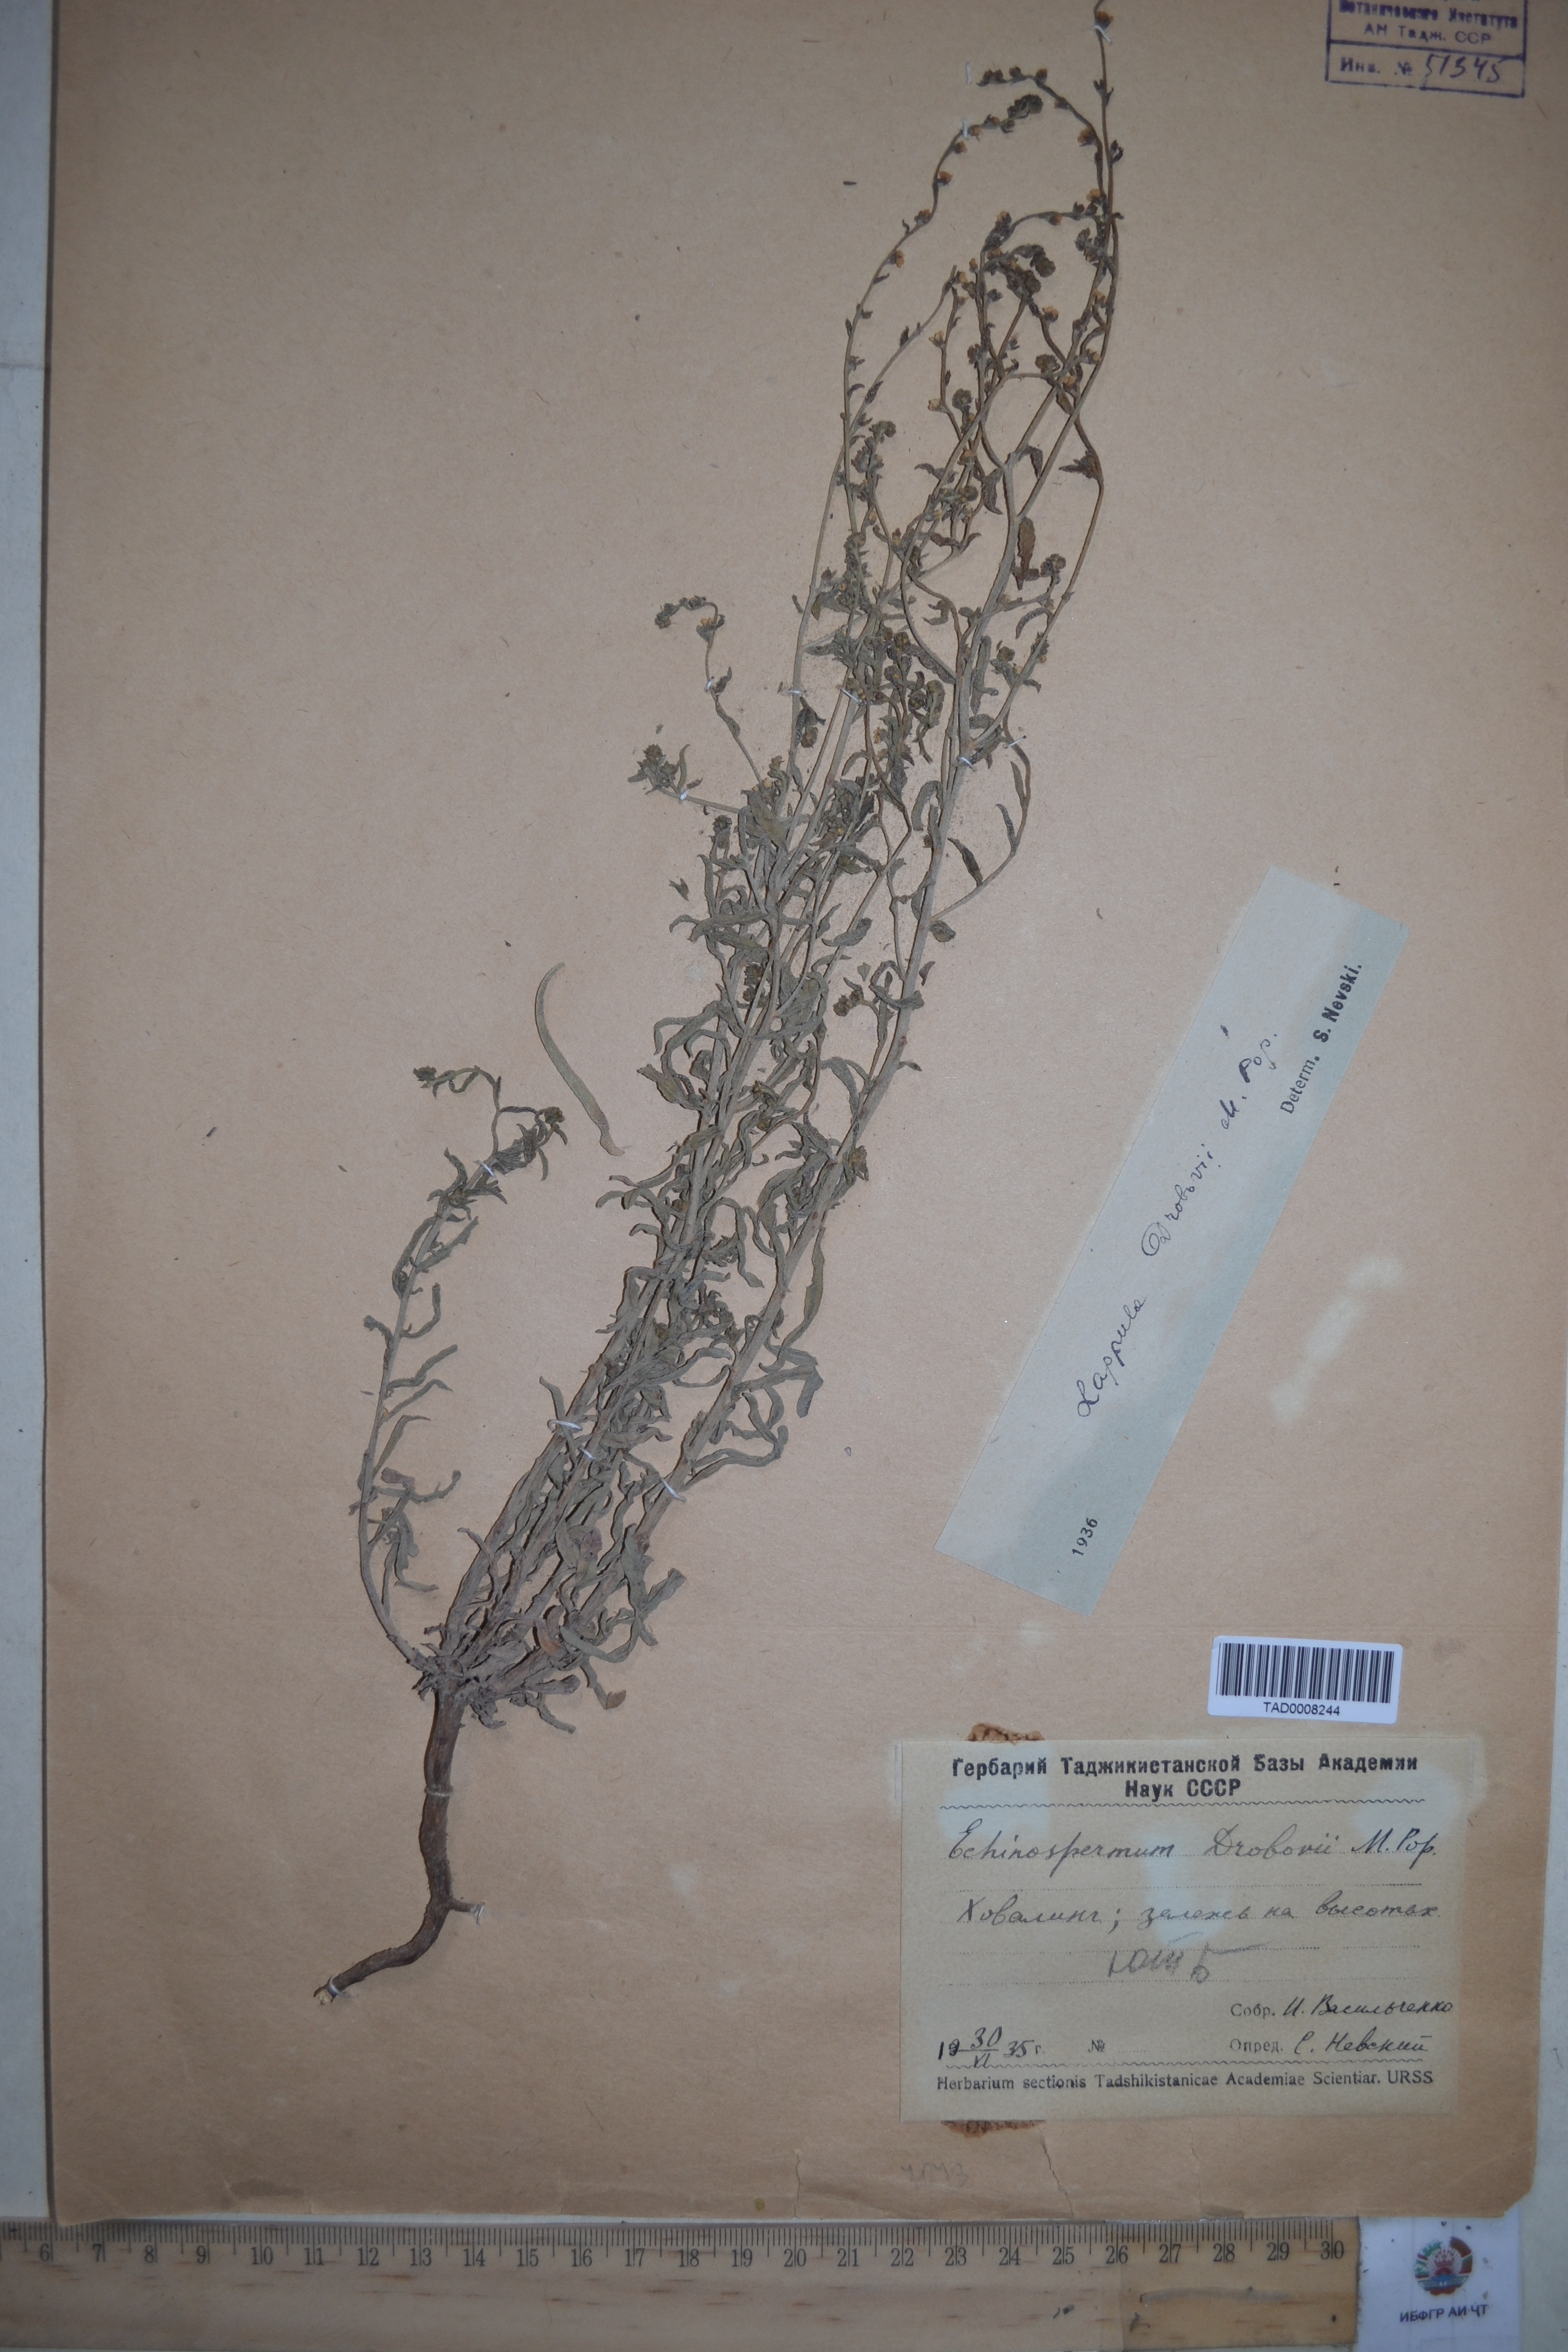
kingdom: Plantae
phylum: Tracheophyta
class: Magnoliopsida
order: Boraginales
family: Boraginaceae
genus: Rochelia
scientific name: Rochelia drobovii
